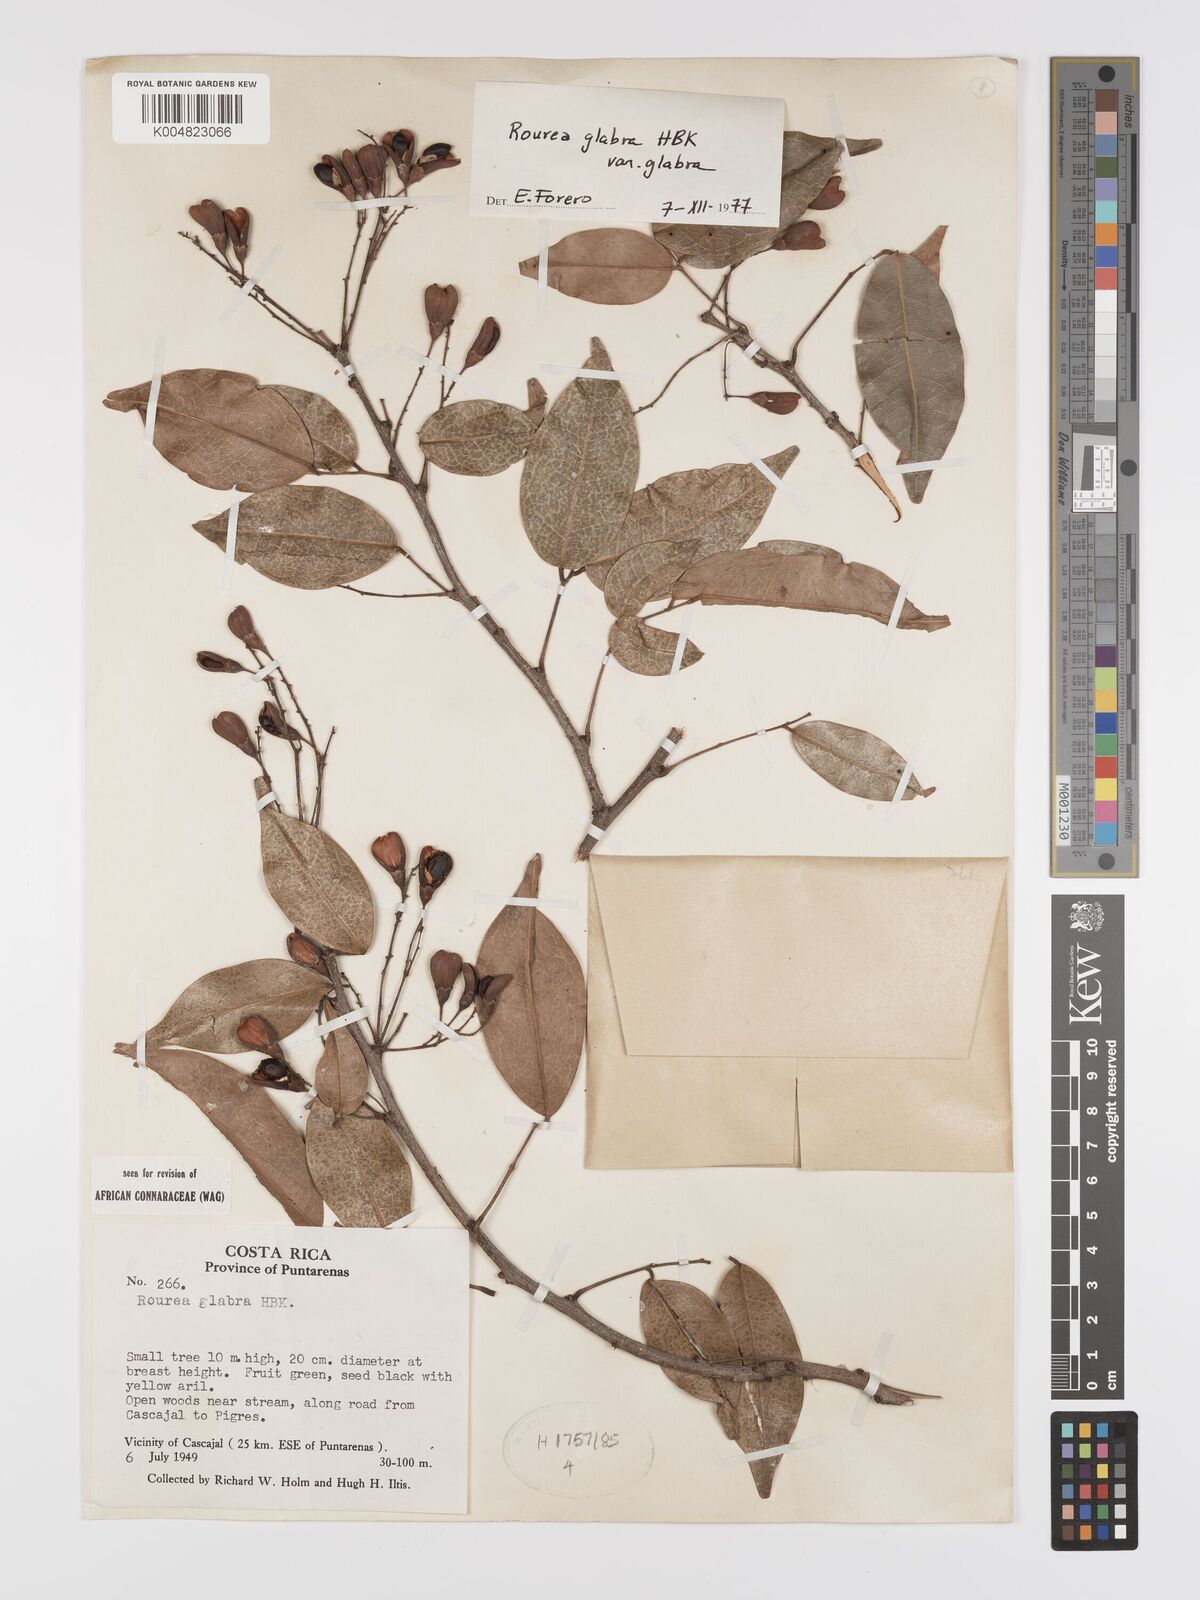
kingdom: Plantae
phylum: Tracheophyta
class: Magnoliopsida
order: Oxalidales
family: Connaraceae
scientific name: Connaraceae
